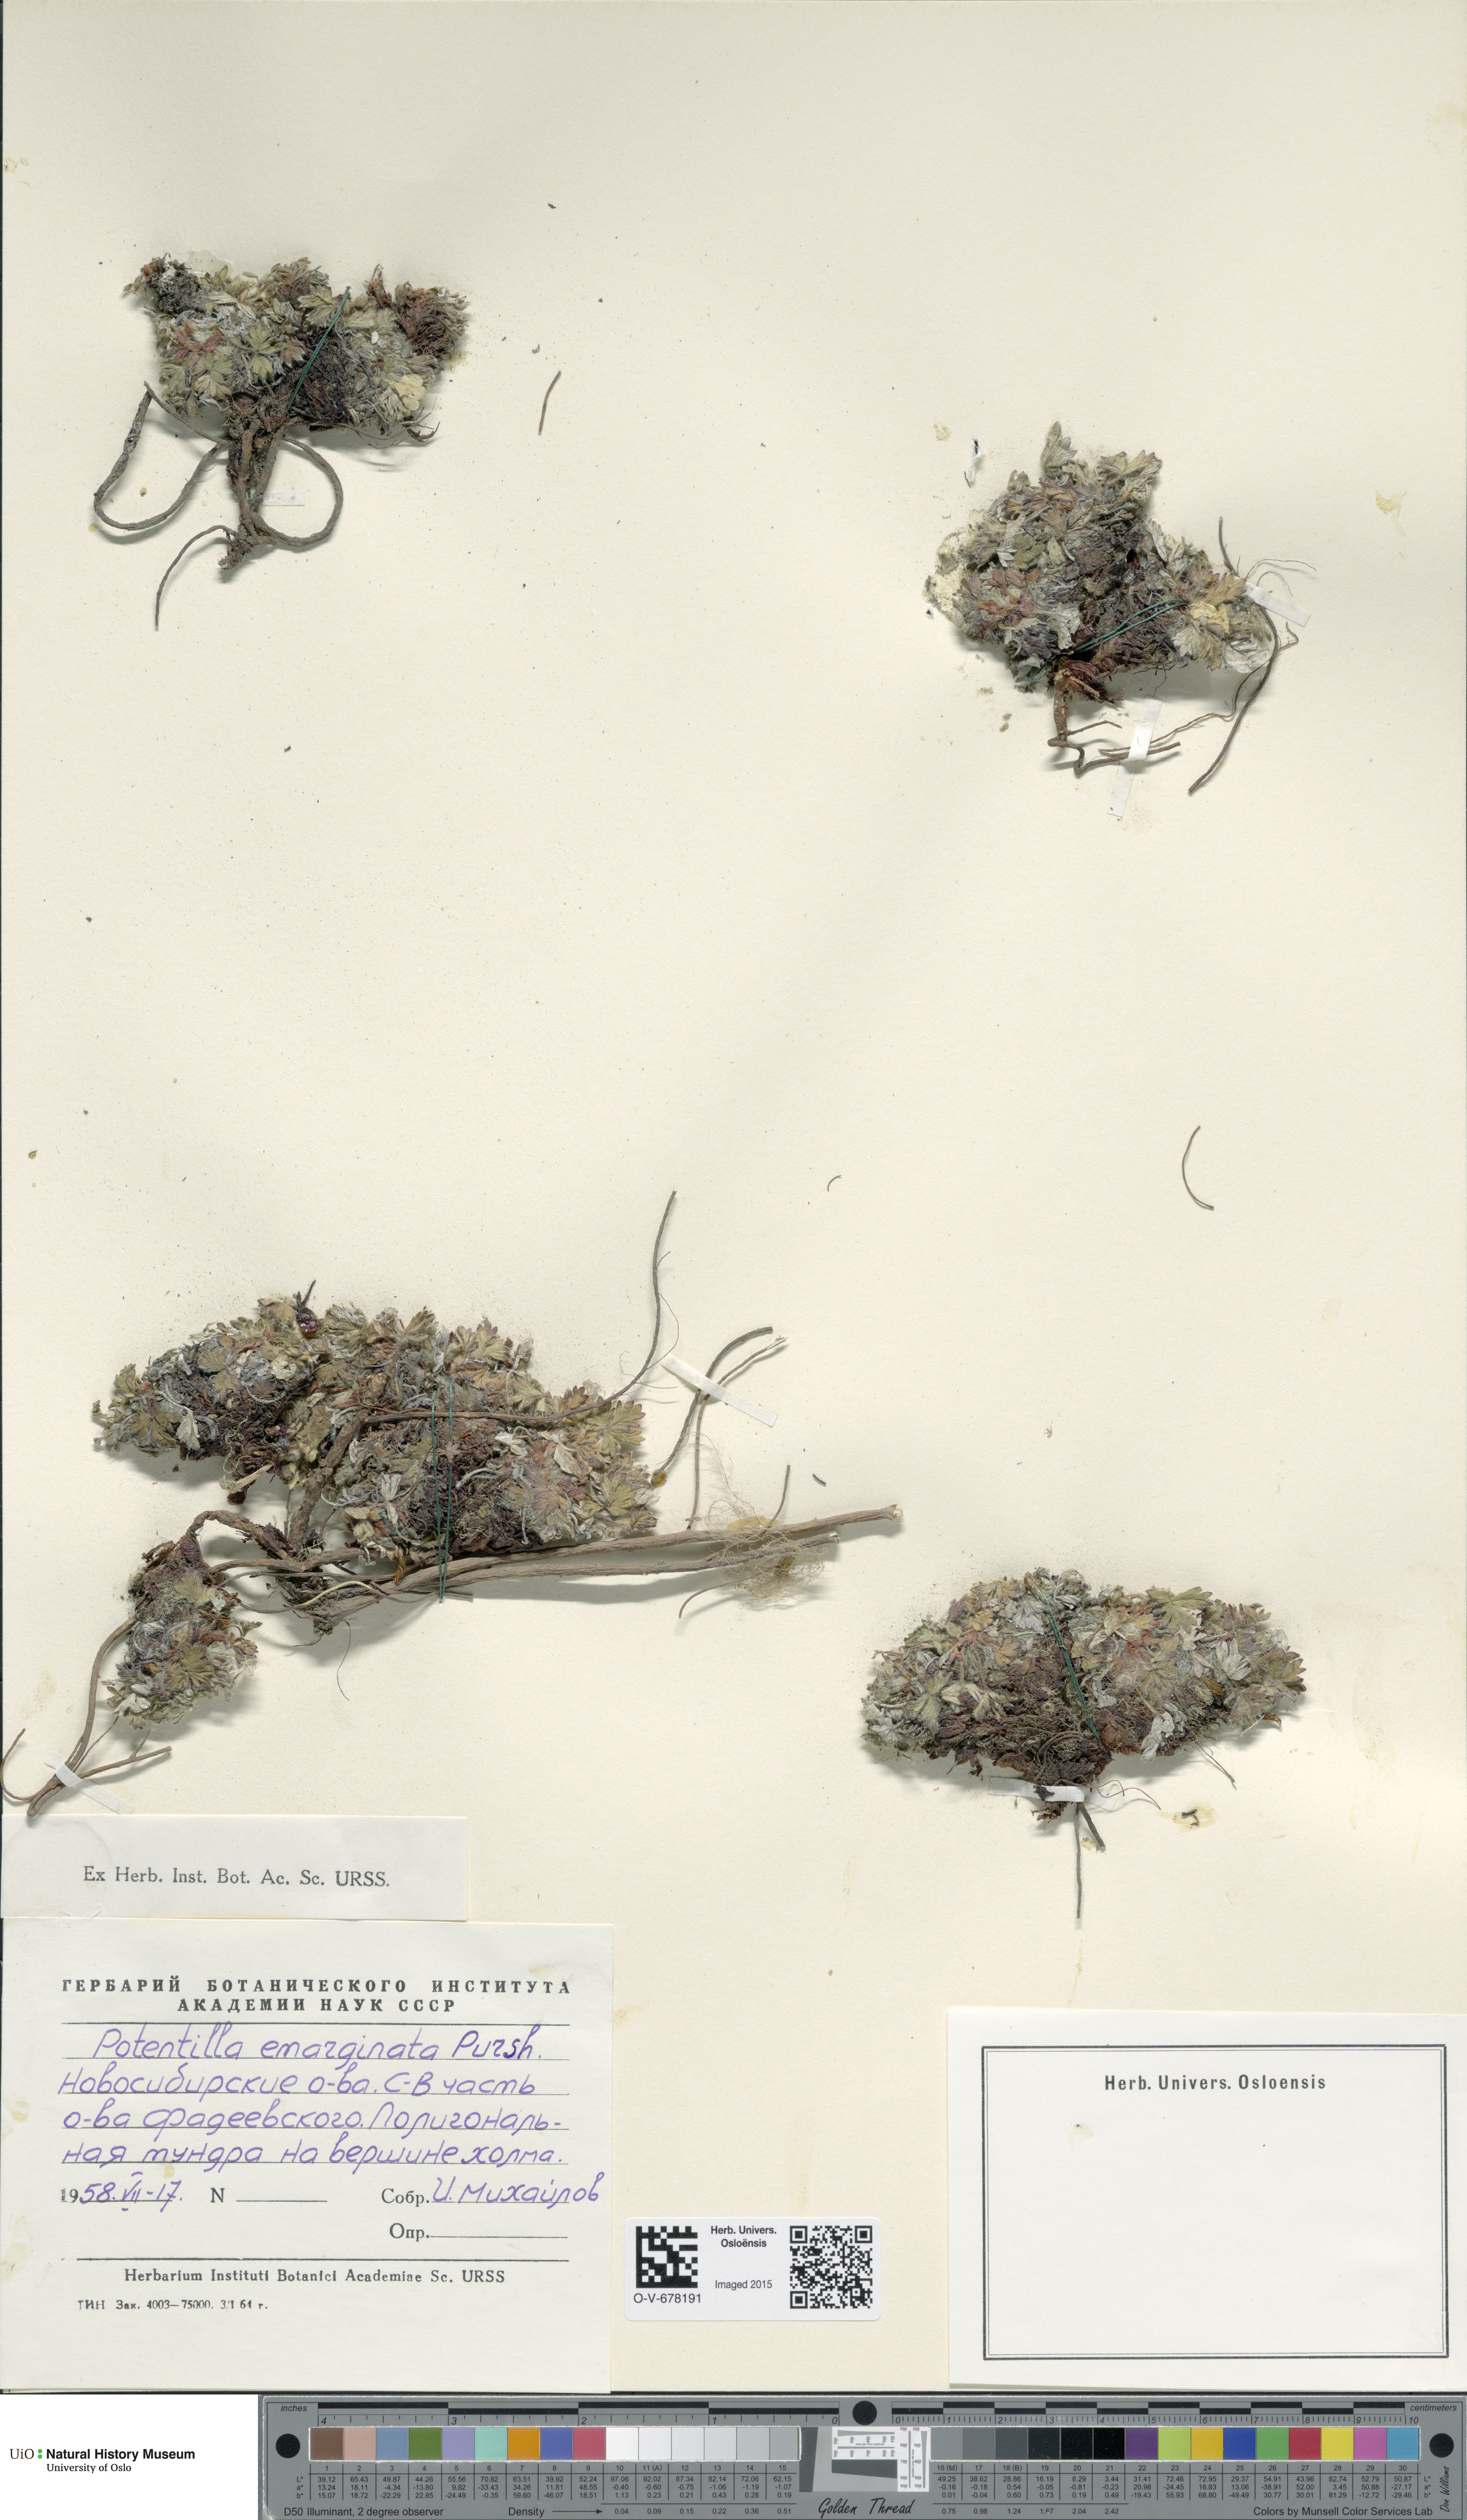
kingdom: Plantae
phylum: Tracheophyta
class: Magnoliopsida
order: Rosales
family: Rosaceae
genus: Potentilla
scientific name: Potentilla hyparctica
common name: Arctic cinquefoil
